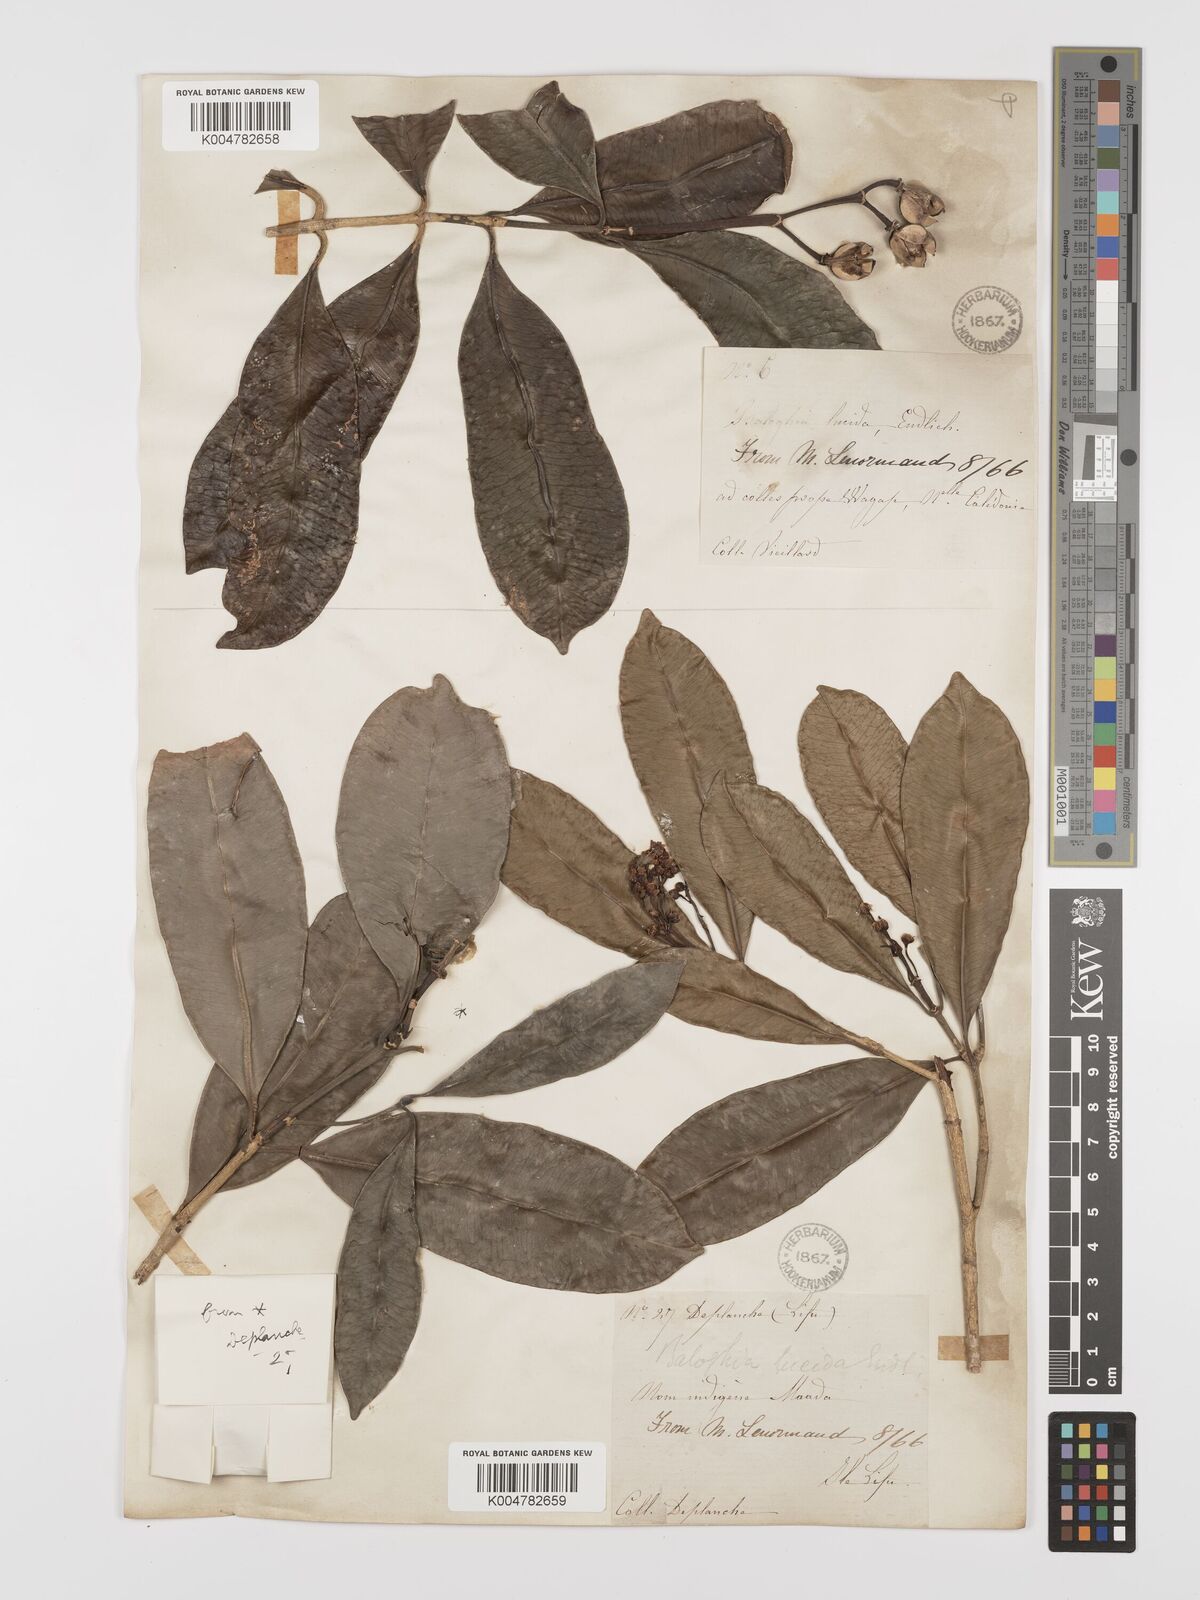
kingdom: Plantae
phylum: Tracheophyta
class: Magnoliopsida
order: Malpighiales
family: Euphorbiaceae
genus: Baloghia
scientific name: Baloghia inophylla
